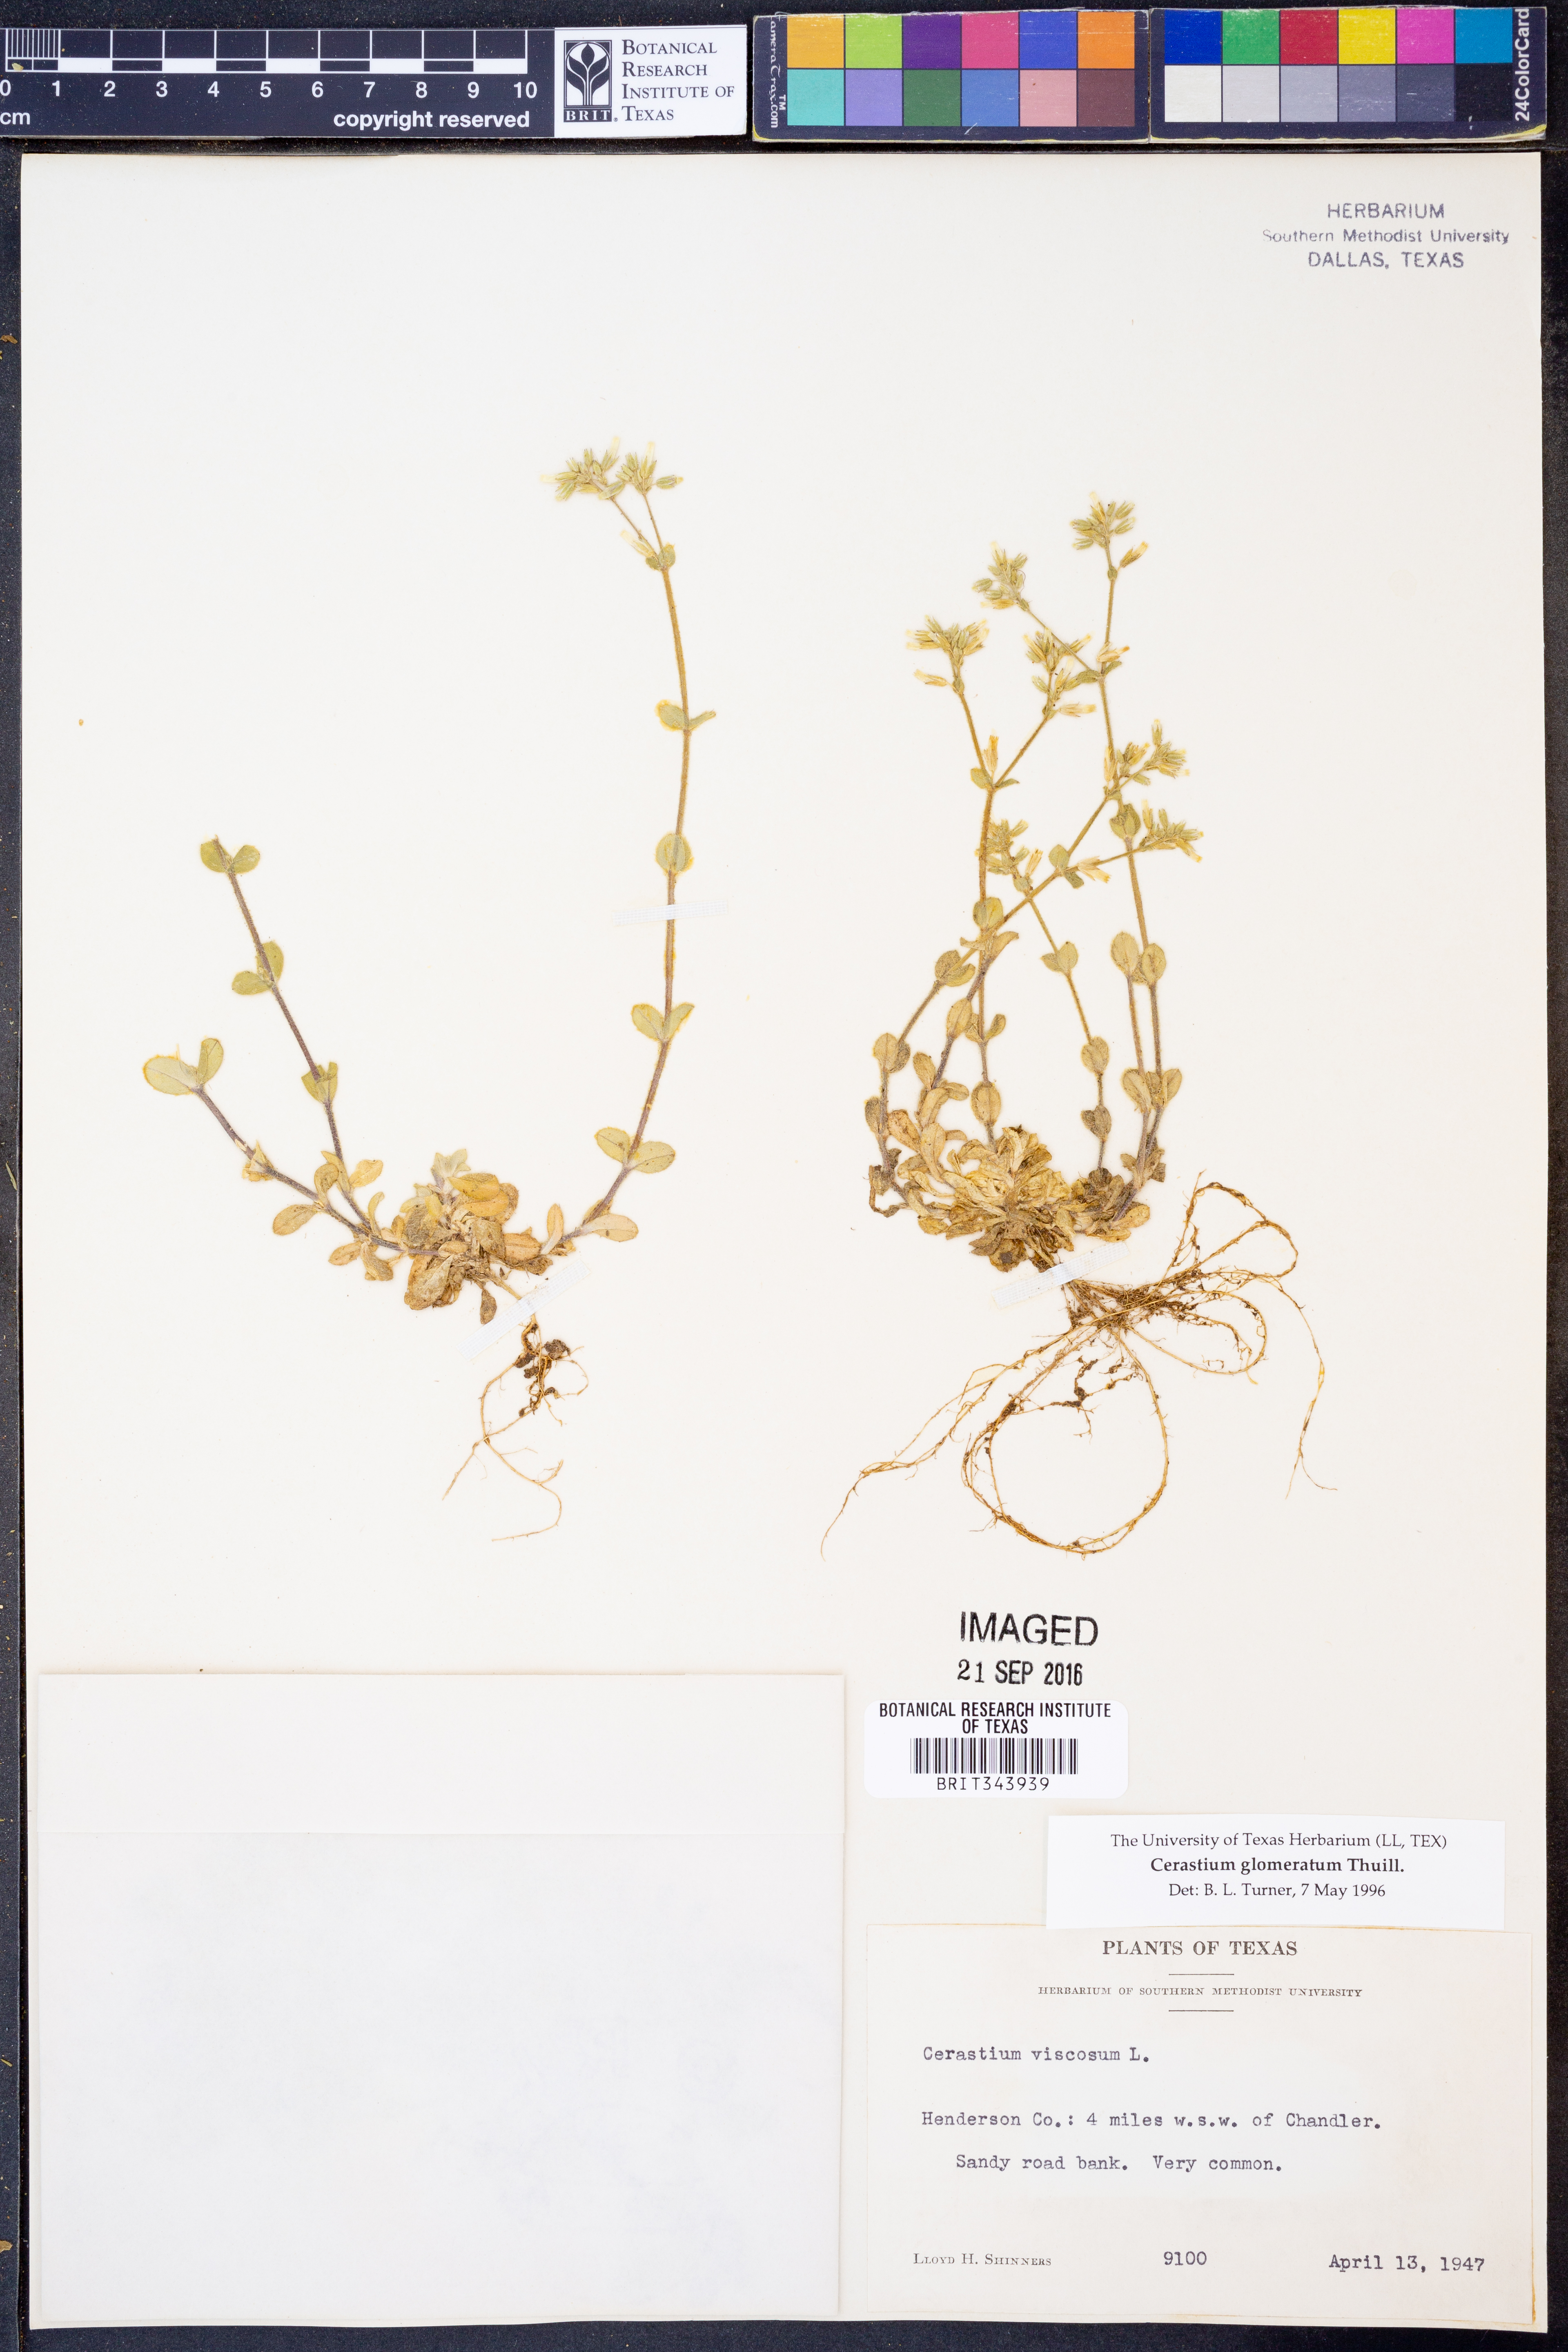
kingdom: Plantae
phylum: Tracheophyta
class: Magnoliopsida
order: Caryophyllales
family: Caryophyllaceae
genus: Cerastium
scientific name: Cerastium glomeratum
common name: Sticky chickweed
